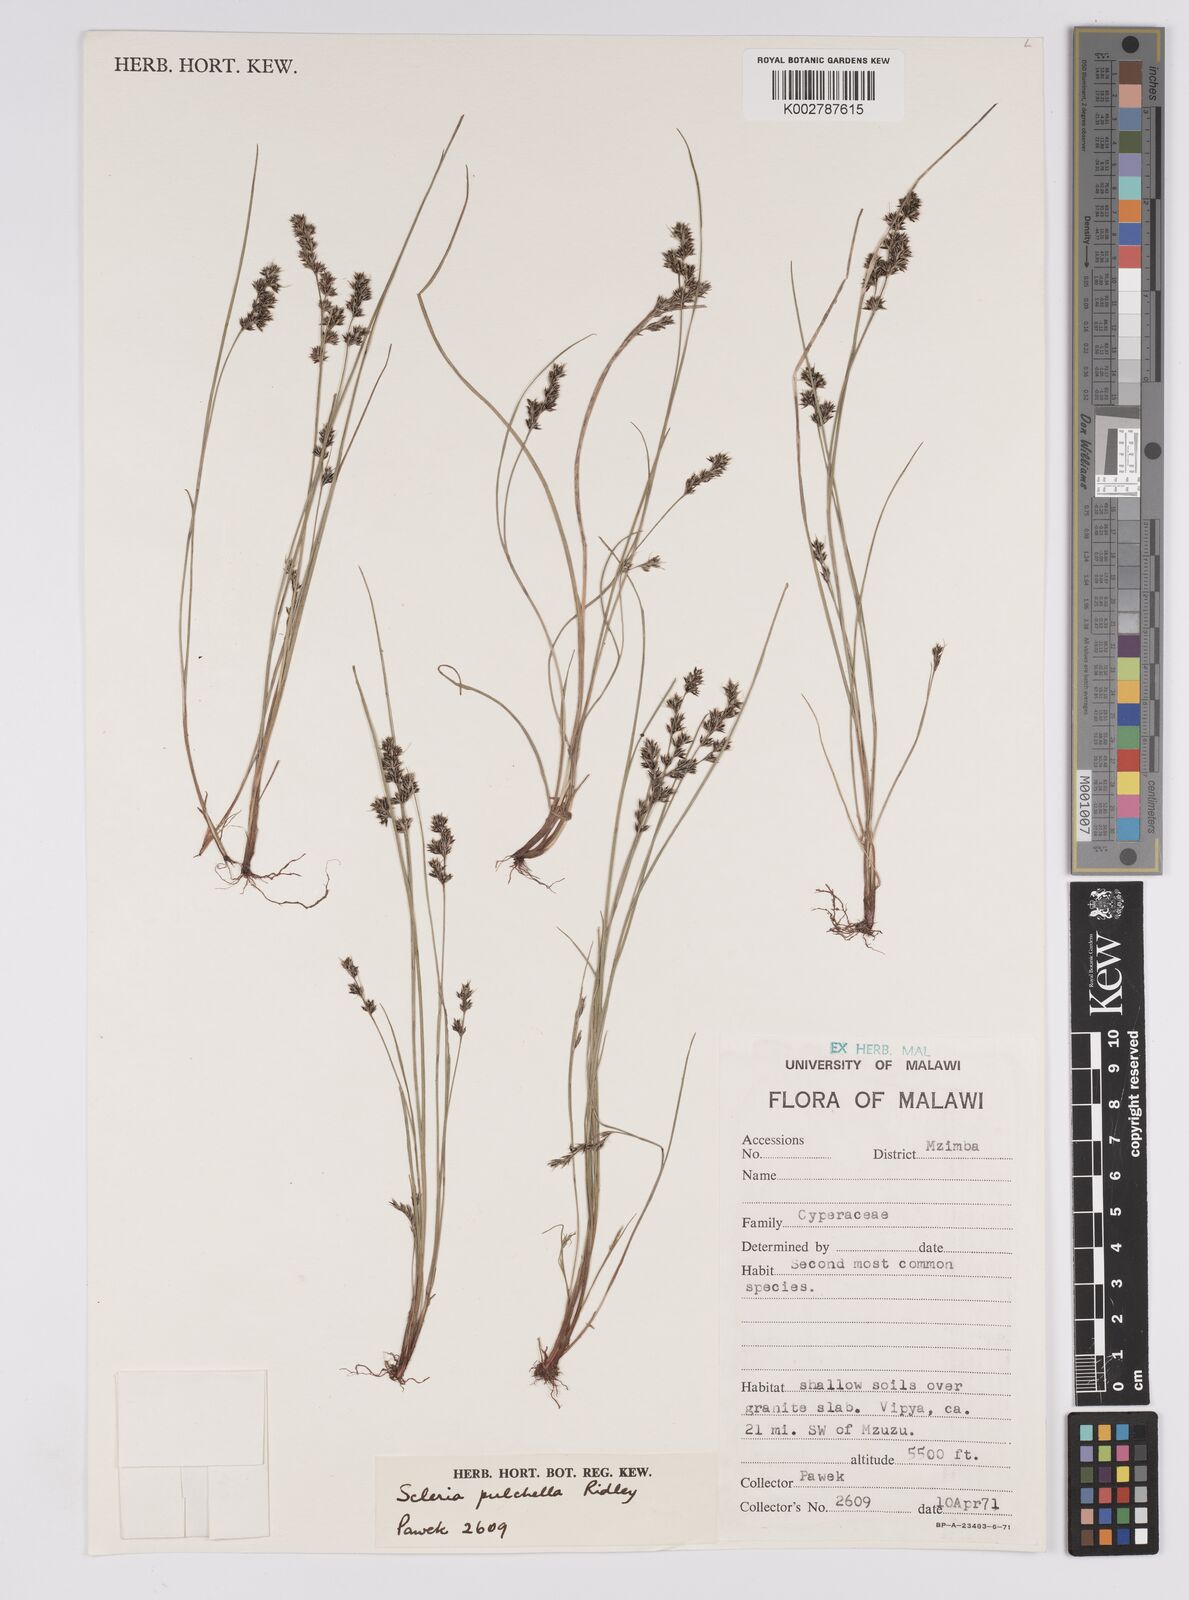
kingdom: Plantae
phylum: Tracheophyta
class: Liliopsida
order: Poales
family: Cyperaceae
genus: Scleria
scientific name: Scleria pulchella
